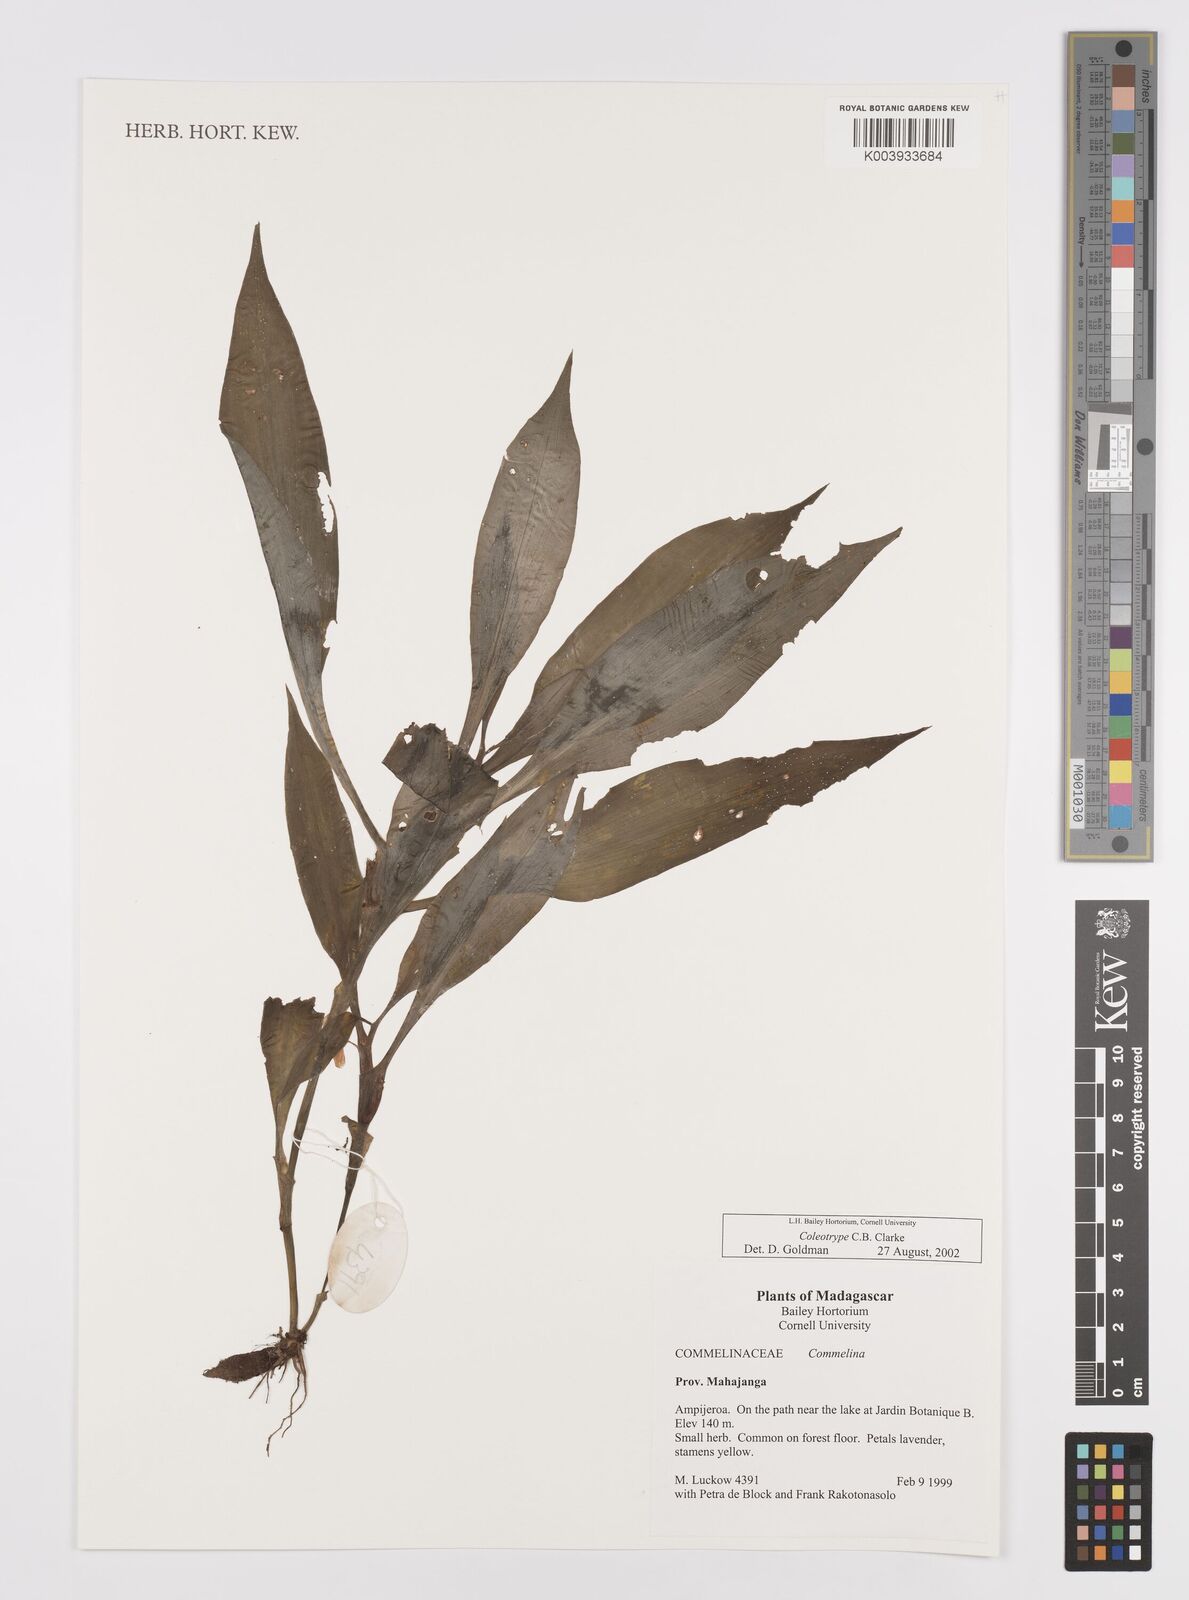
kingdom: Plantae
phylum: Tracheophyta
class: Liliopsida
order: Commelinales
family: Commelinaceae
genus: Coleotrype
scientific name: Coleotrype
